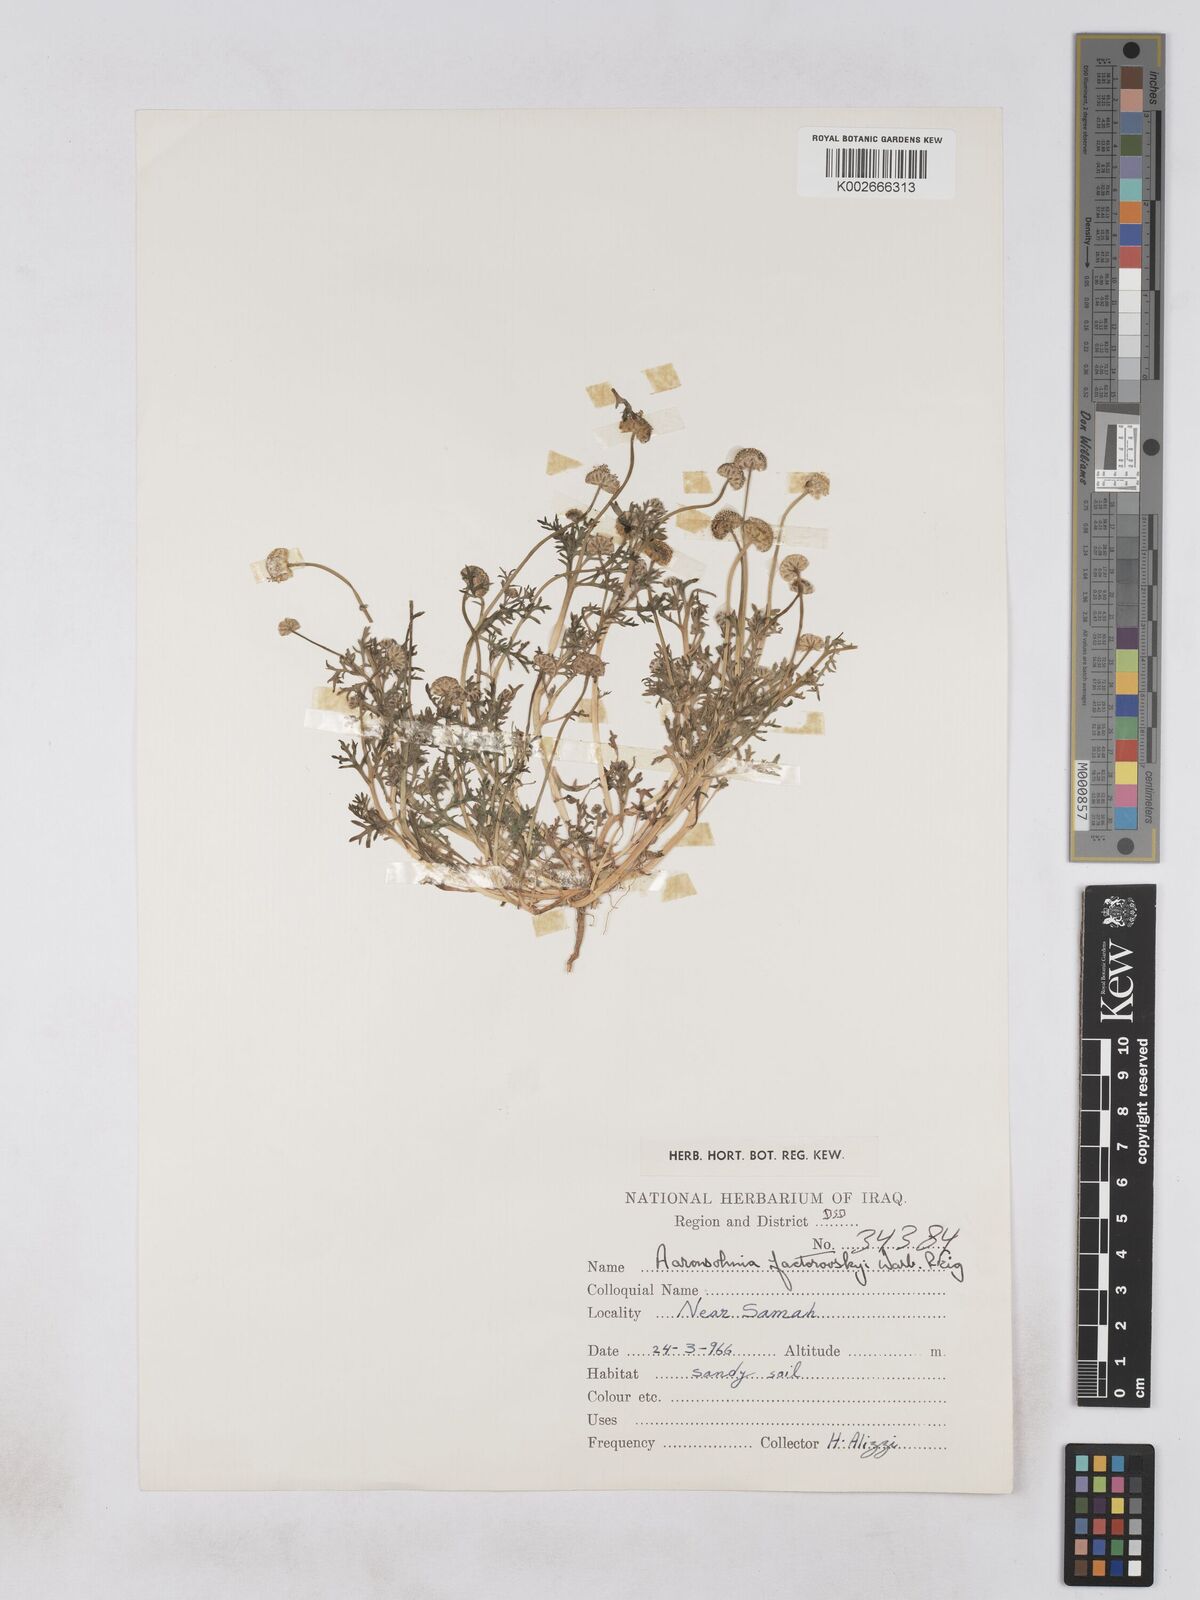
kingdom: Plantae
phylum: Tracheophyta
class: Magnoliopsida
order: Asterales
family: Asteraceae
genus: Otoglyphis
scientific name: Otoglyphis factorovskyi
